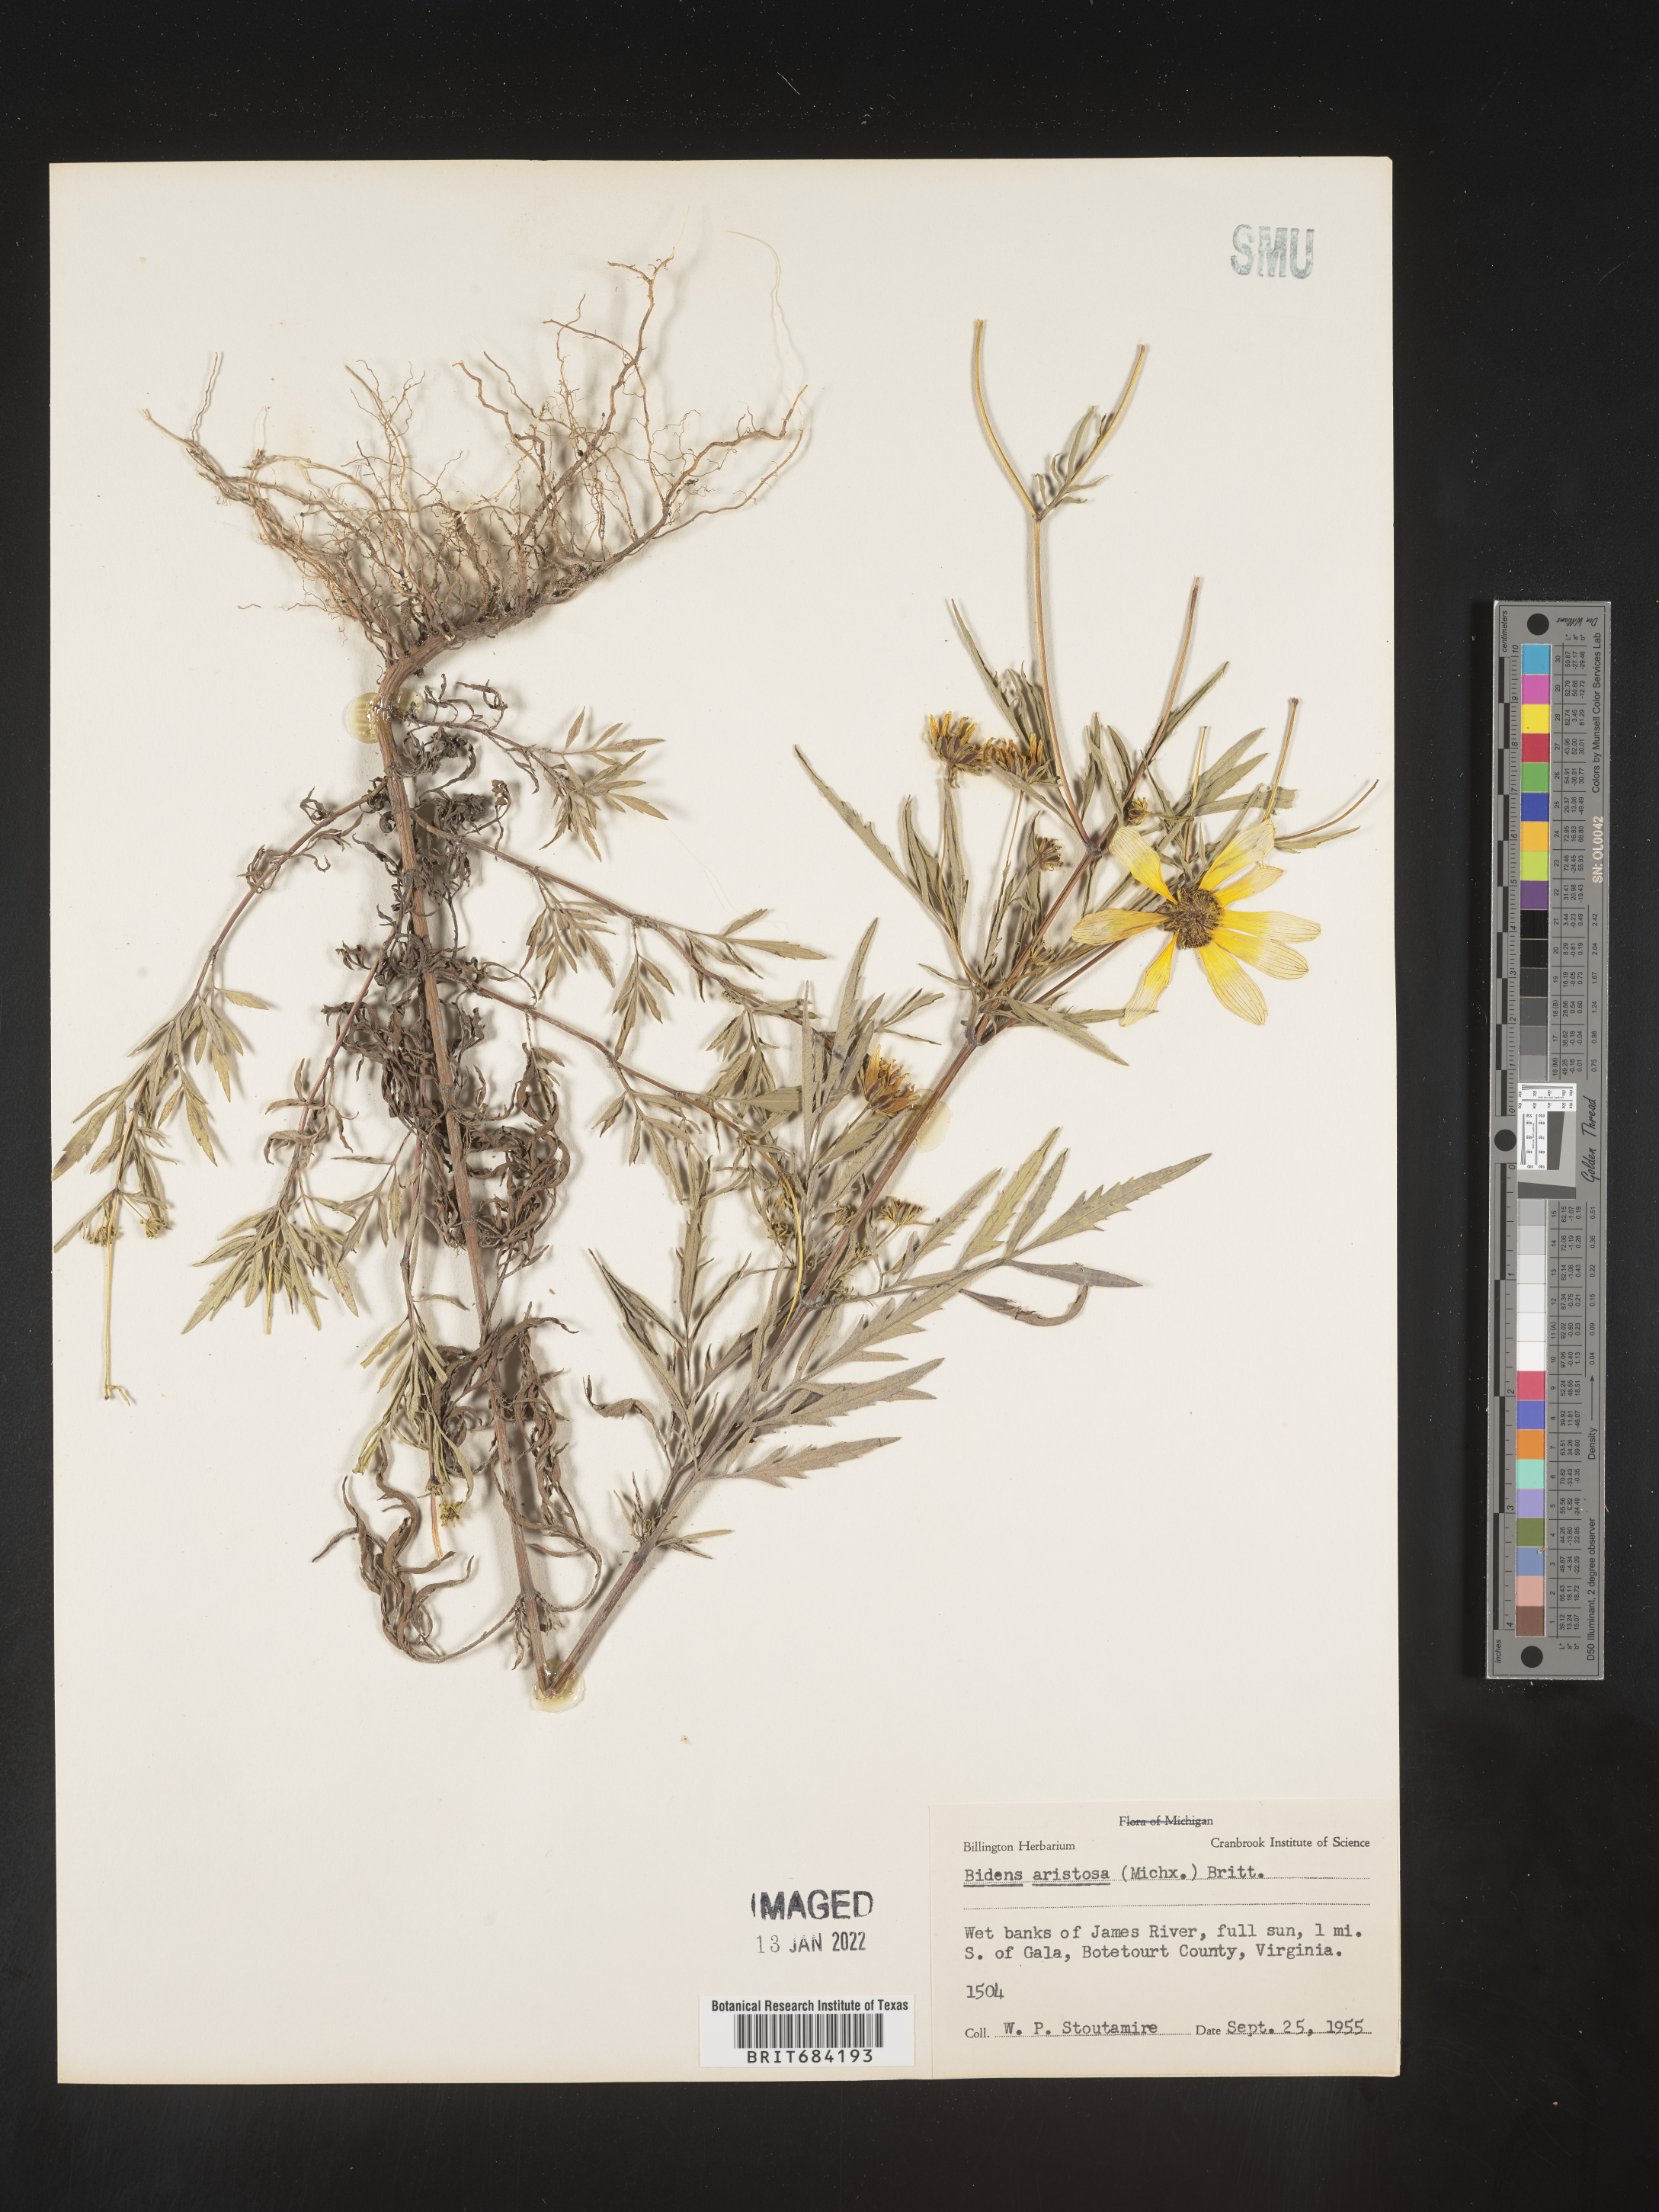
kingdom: Plantae
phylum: Tracheophyta
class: Magnoliopsida
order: Asterales
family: Asteraceae
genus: Bidens
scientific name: Bidens aristosa
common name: Western tickseed
